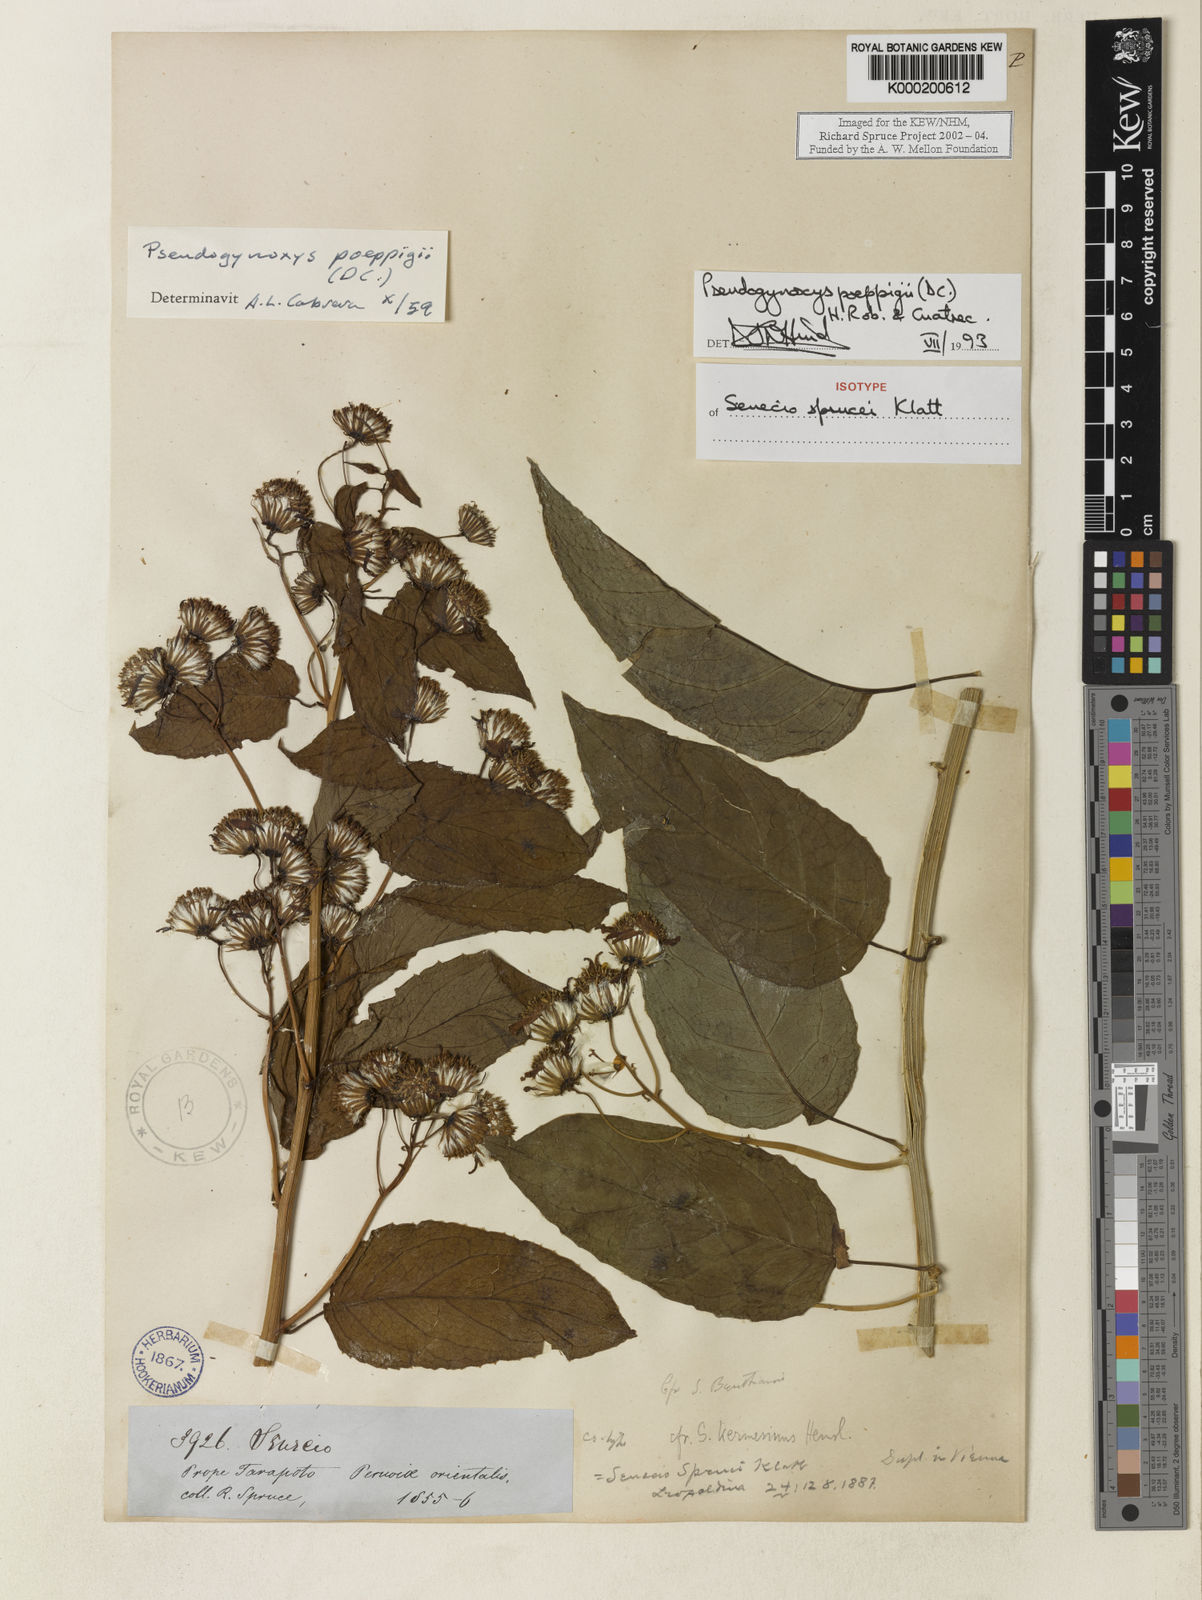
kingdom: Plantae
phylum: Tracheophyta
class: Magnoliopsida
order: Asterales
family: Asteraceae
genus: Pseudogynoxys
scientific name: Pseudogynoxys
